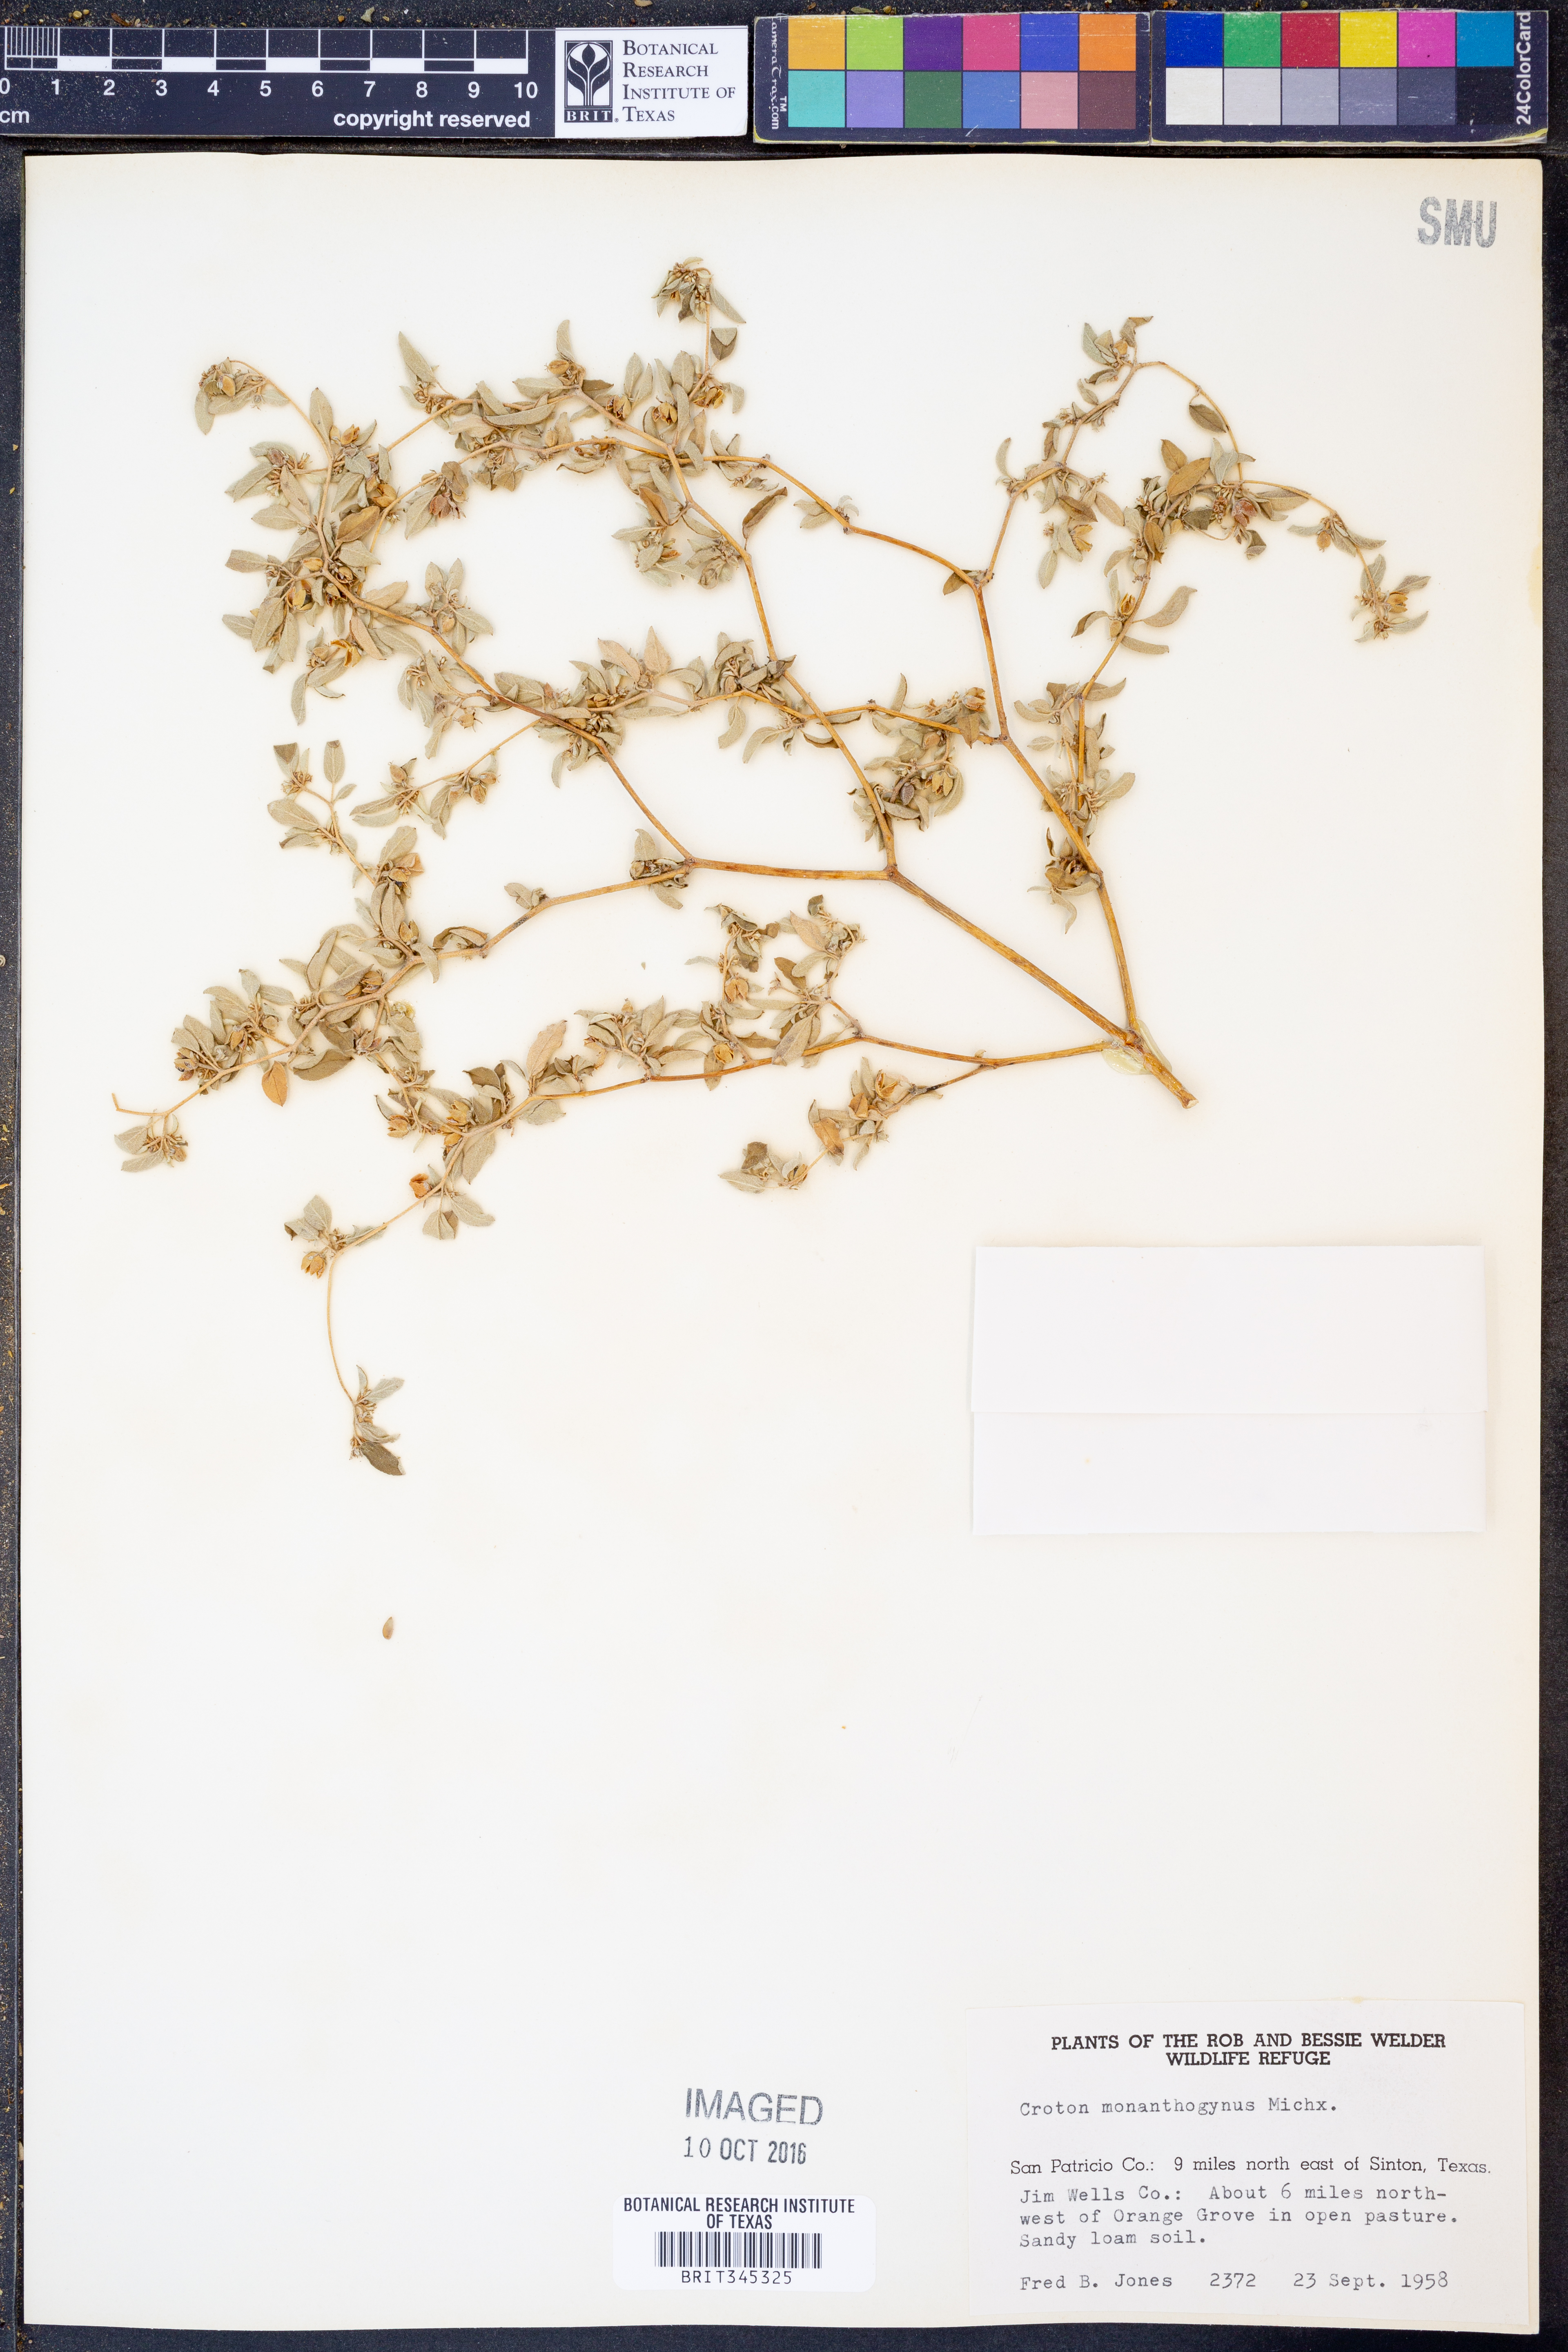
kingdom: Plantae
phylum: Tracheophyta
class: Magnoliopsida
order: Malpighiales
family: Euphorbiaceae
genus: Croton
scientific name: Croton monanthogynus
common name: One-seed croton
